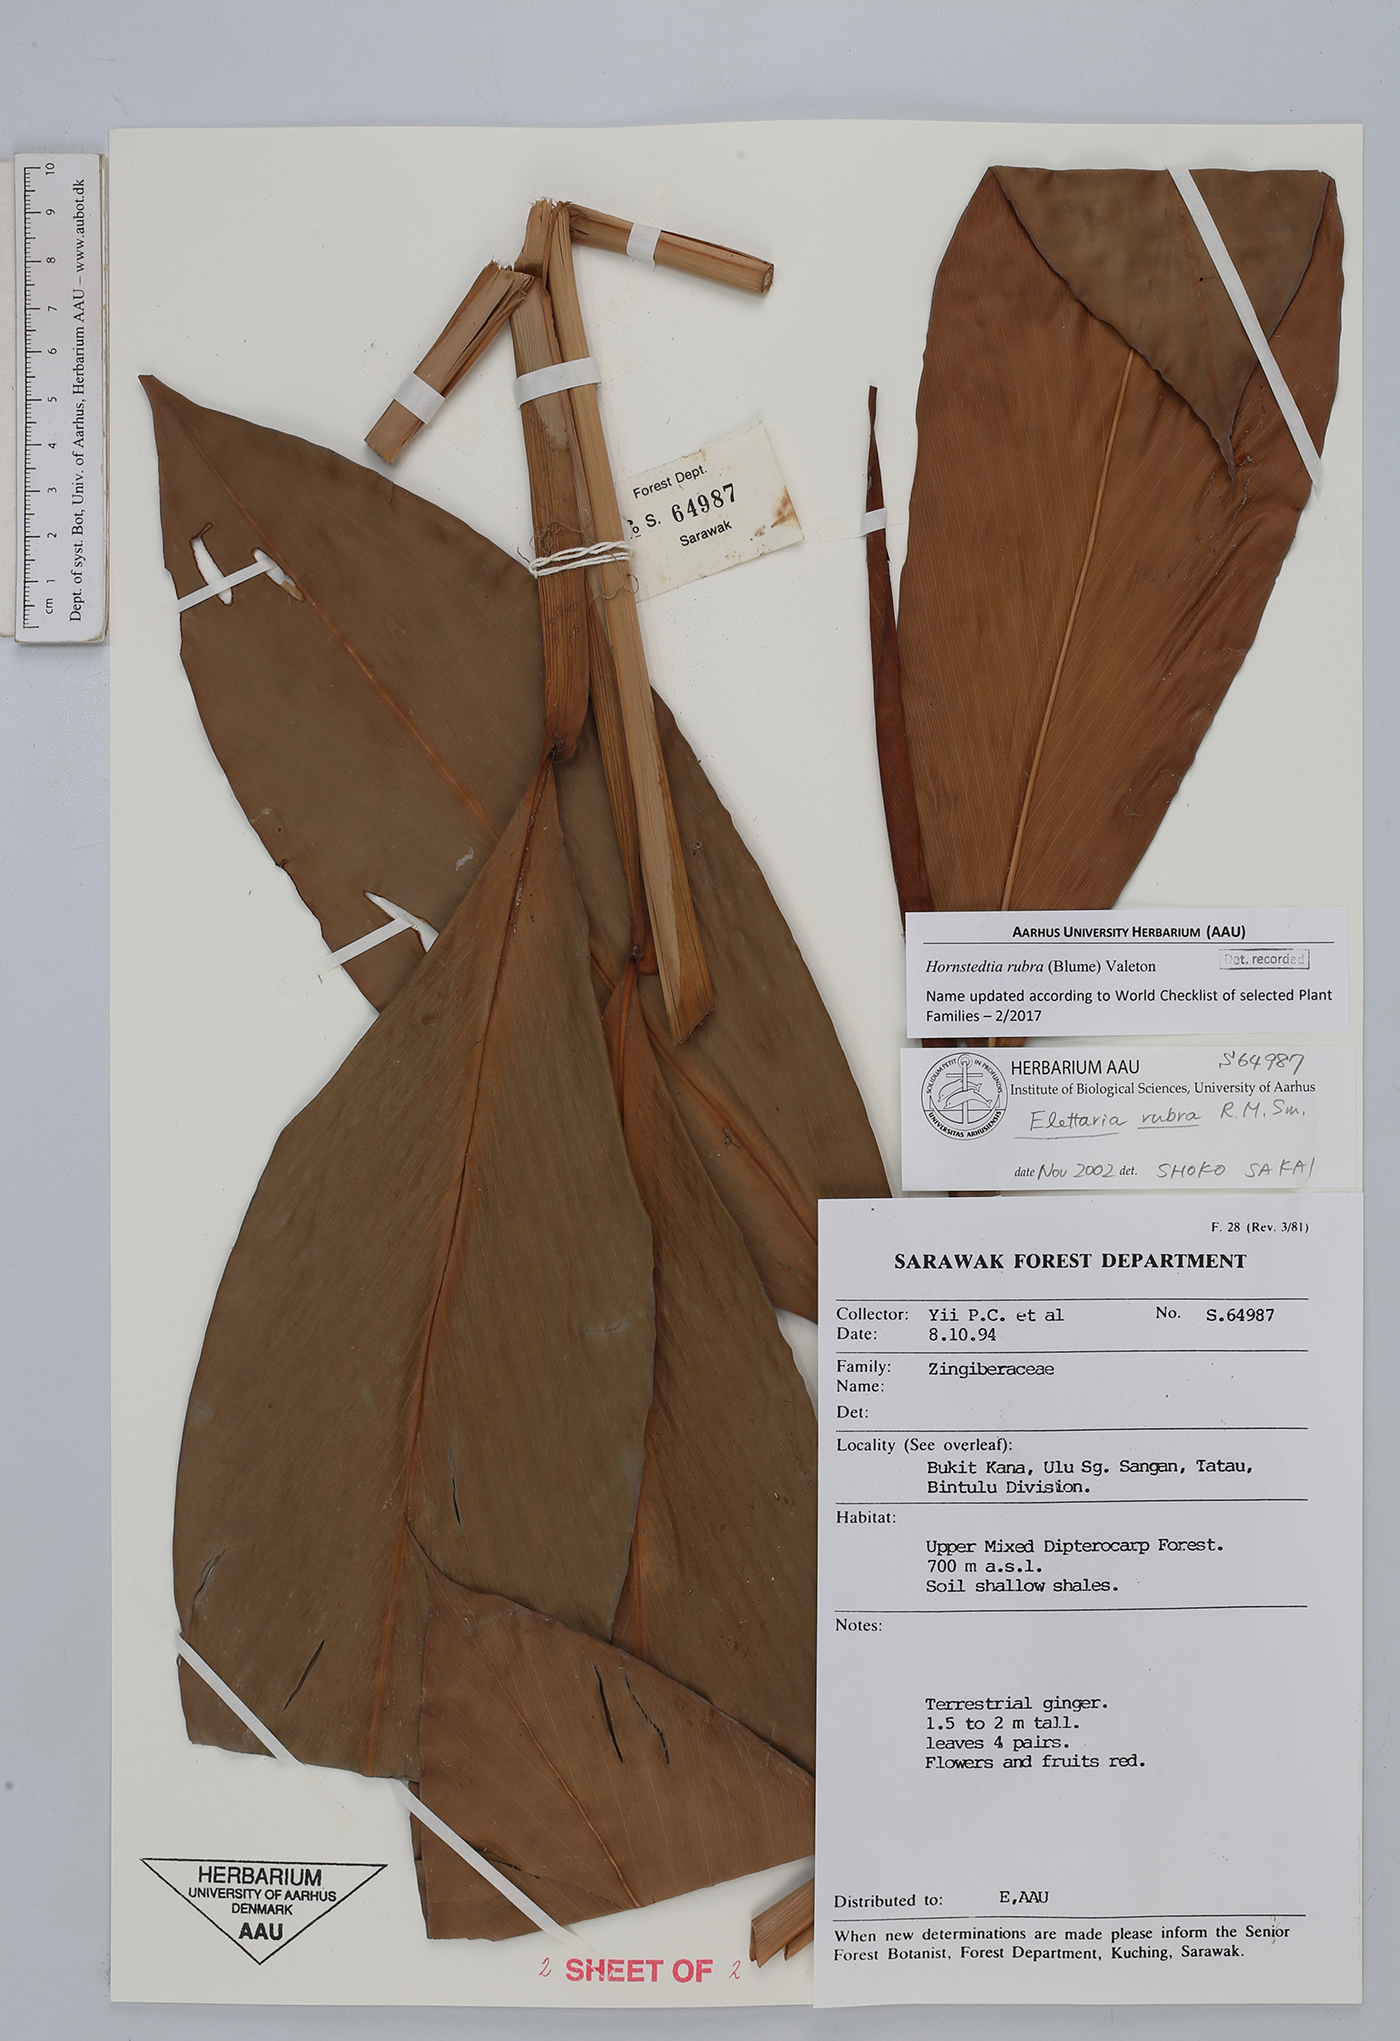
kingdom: Plantae
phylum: Tracheophyta
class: Liliopsida
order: Zingiberales
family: Zingiberaceae
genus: Sulettaria
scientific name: Sulettaria rubida
